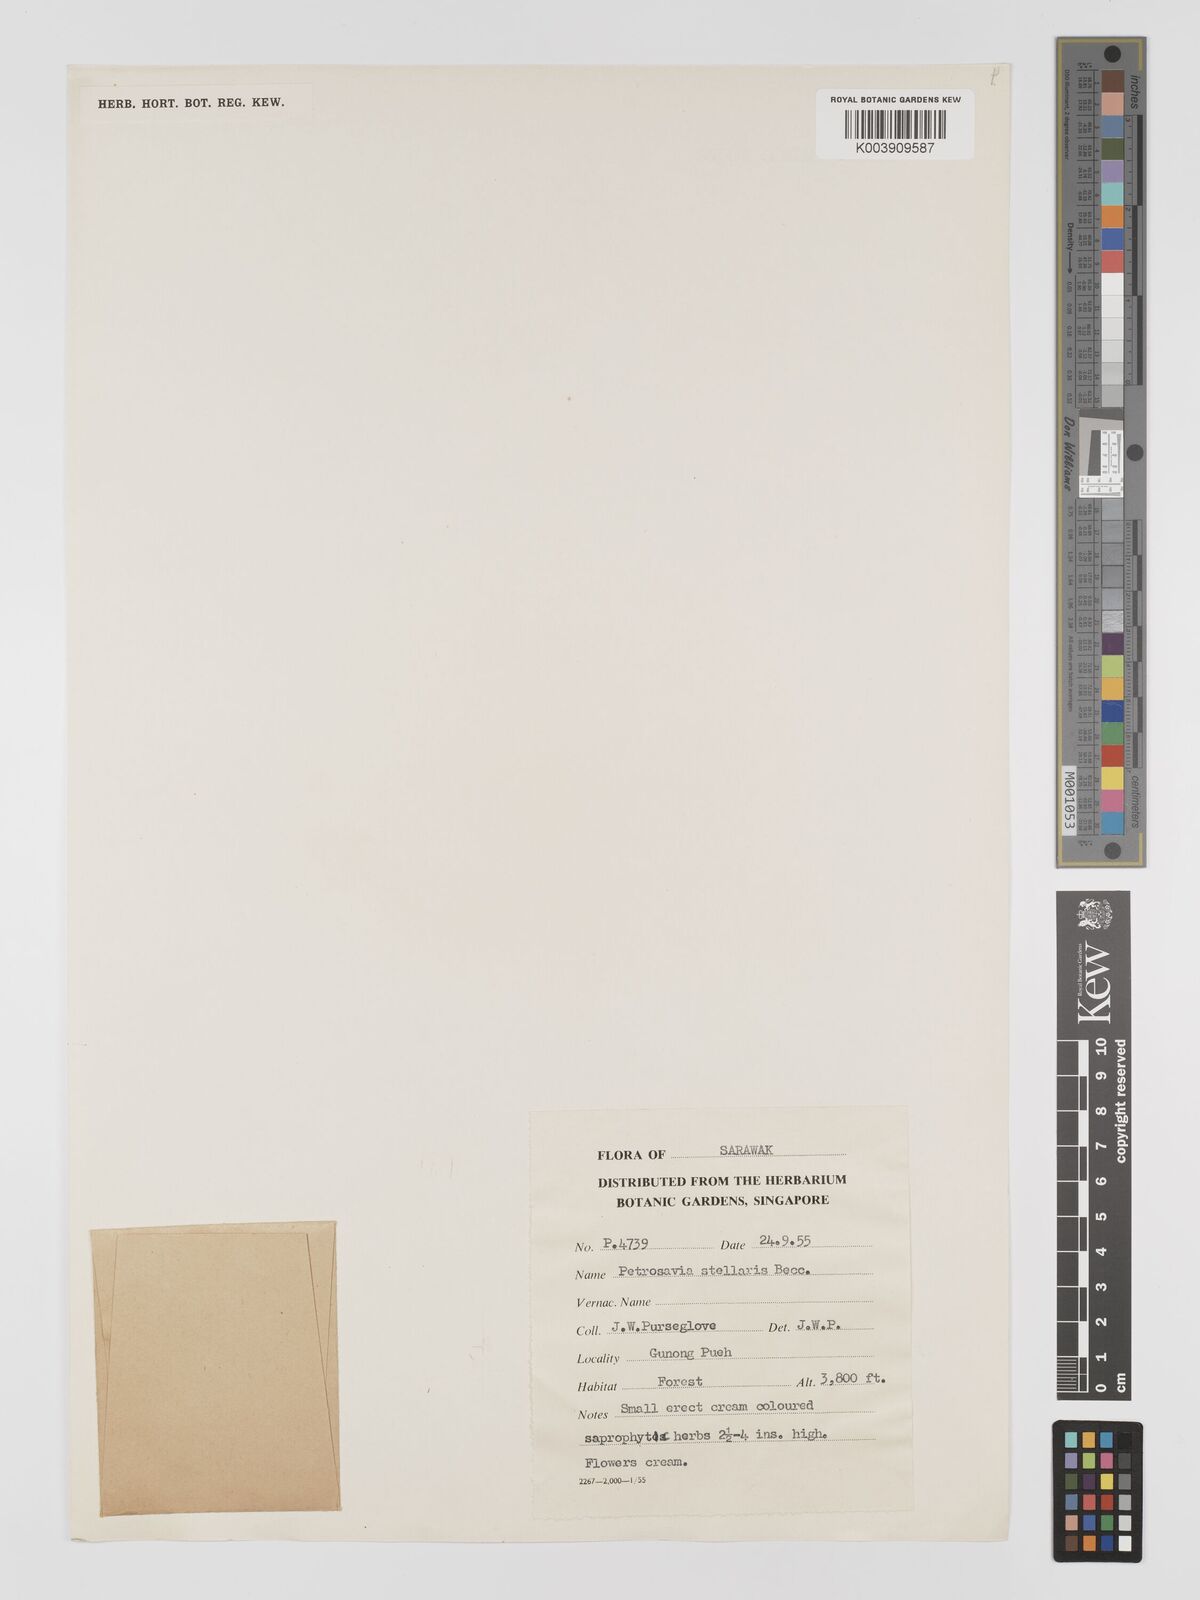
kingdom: Plantae
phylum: Tracheophyta
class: Liliopsida
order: Petrosaviales
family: Petrosaviaceae
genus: Petrosavia
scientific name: Petrosavia stellaris
